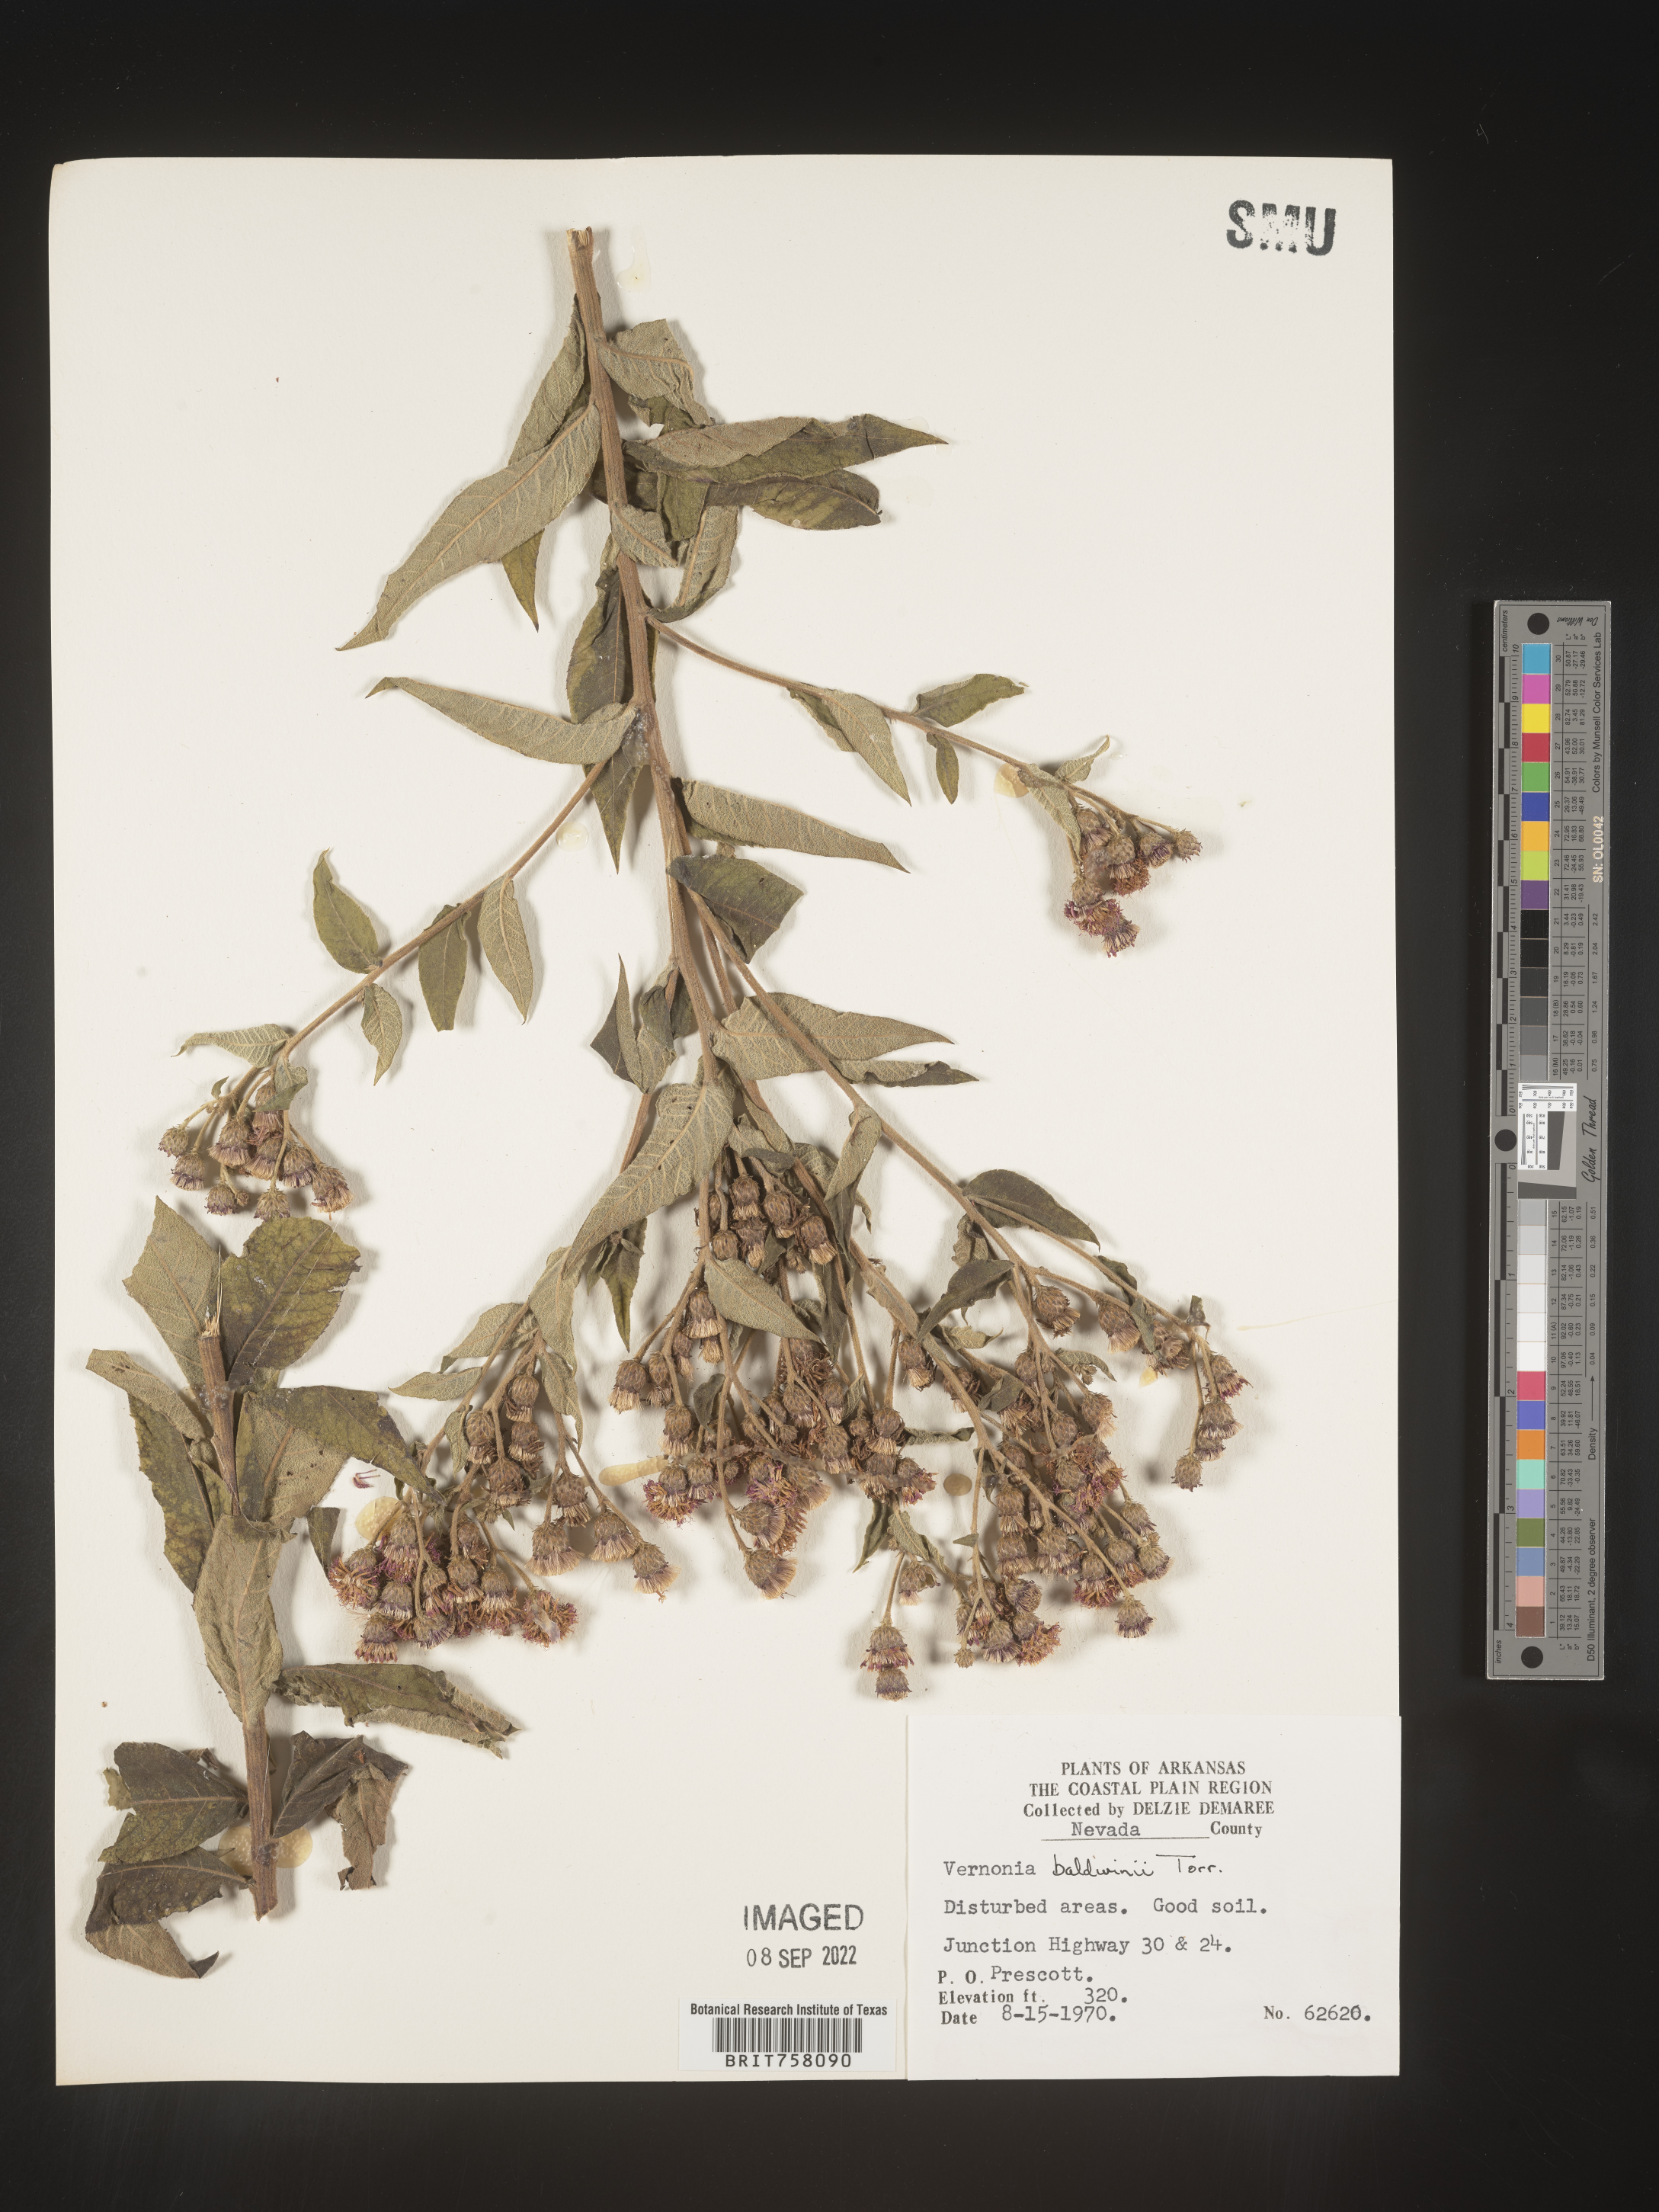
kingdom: Plantae
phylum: Tracheophyta
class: Magnoliopsida
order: Asterales
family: Asteraceae
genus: Vernonia
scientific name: Vernonia baldwinii
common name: Western ironweed
